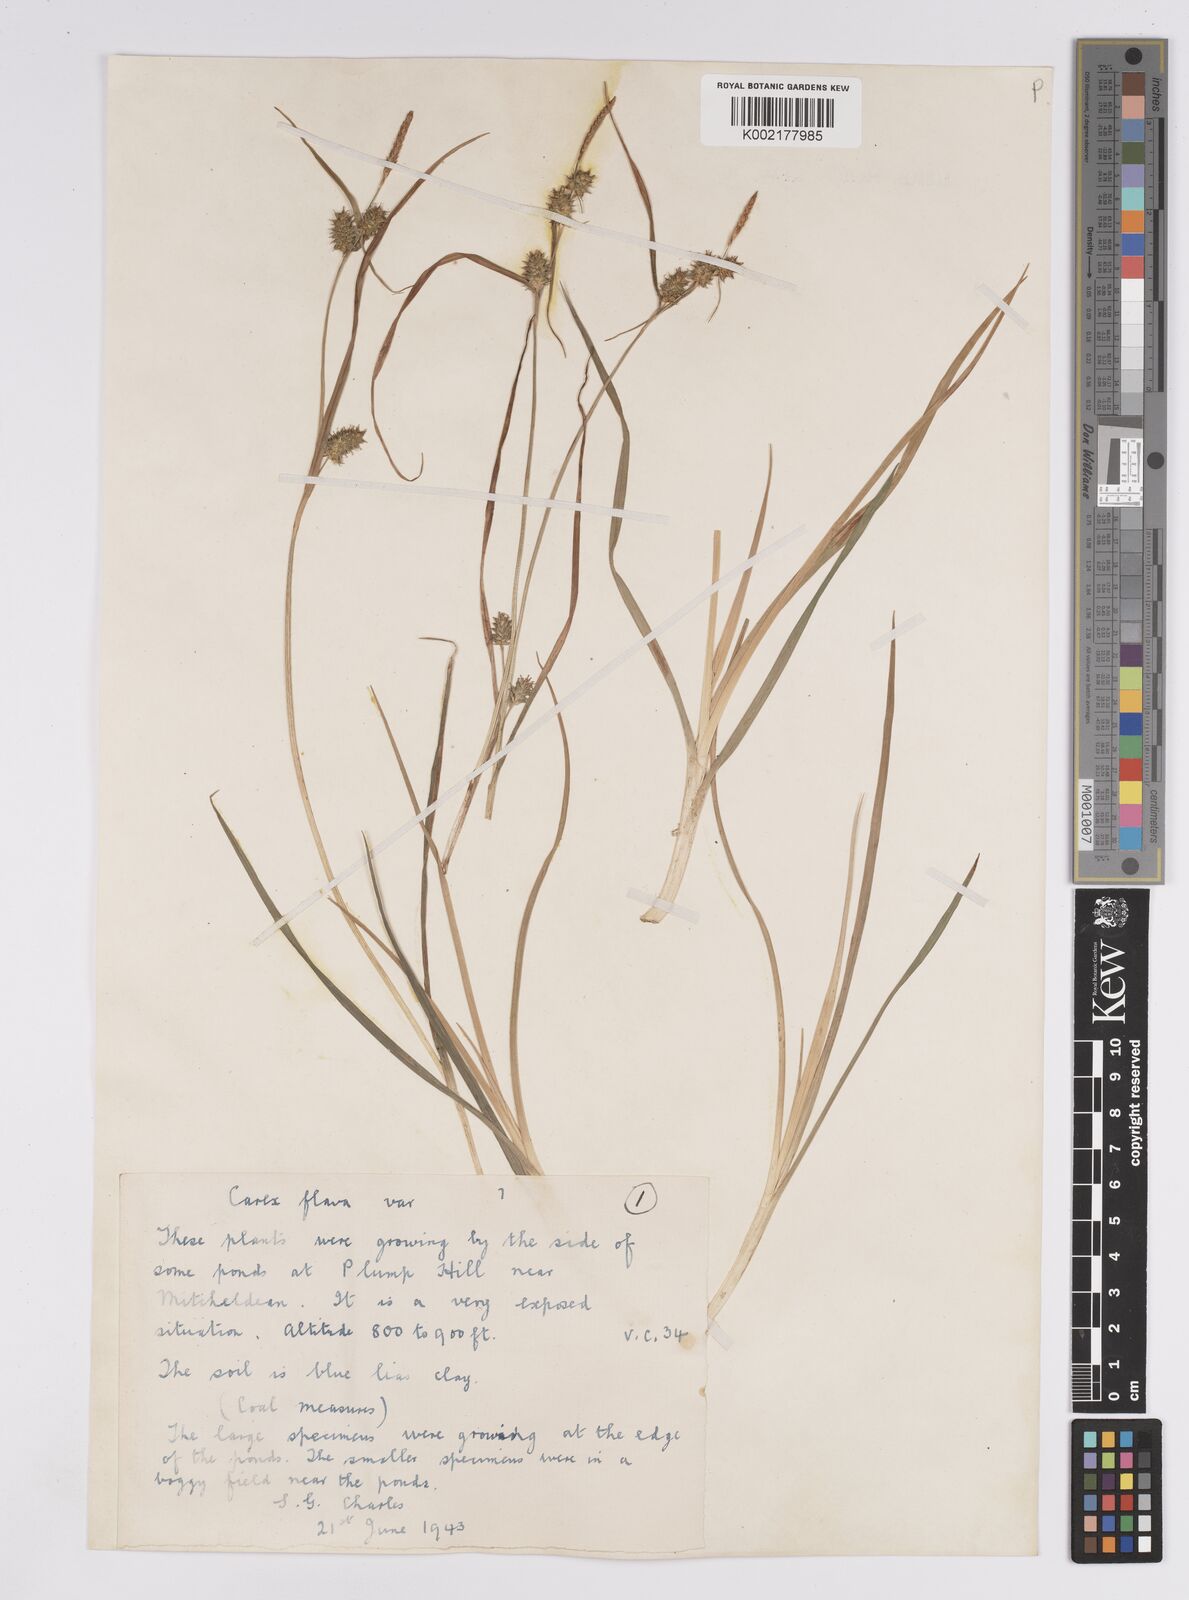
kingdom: Plantae
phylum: Tracheophyta
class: Liliopsida
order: Poales
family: Cyperaceae
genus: Carex
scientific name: Carex demissa
